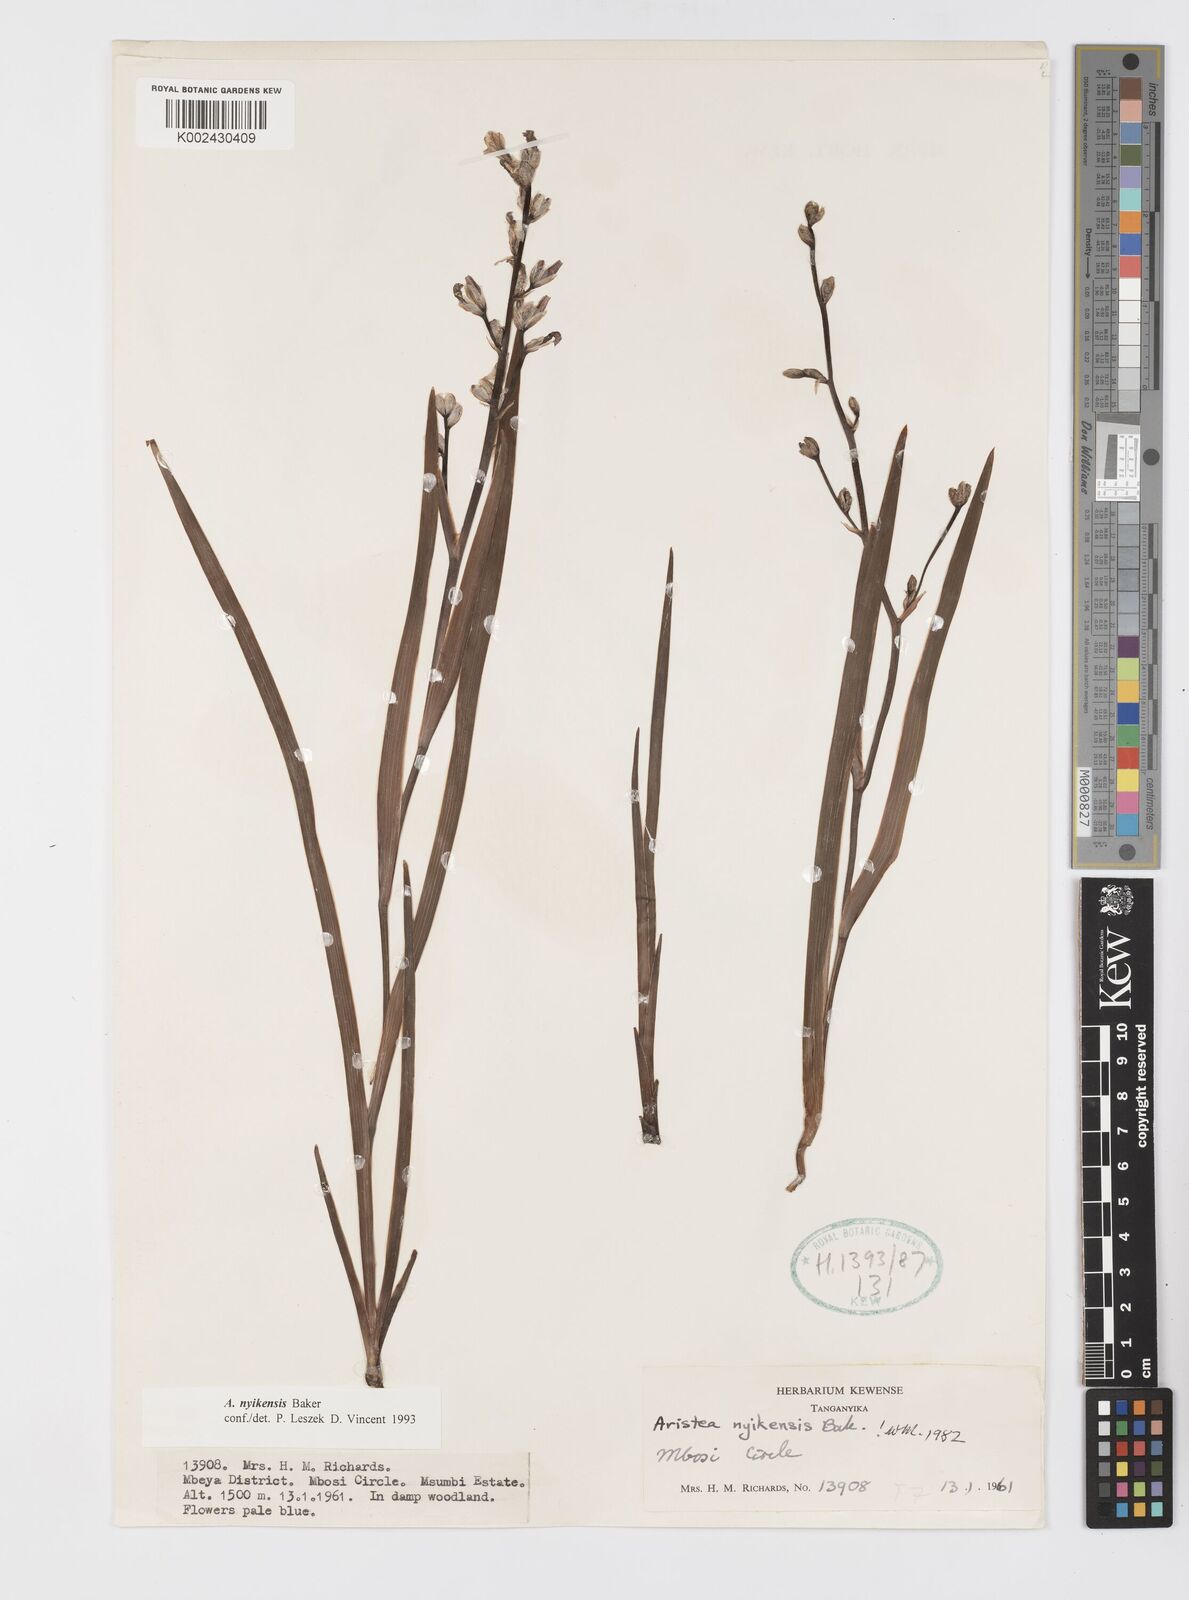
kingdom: Plantae
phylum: Tracheophyta
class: Liliopsida
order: Asparagales
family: Iridaceae
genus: Aristea
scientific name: Aristea nyikensis
